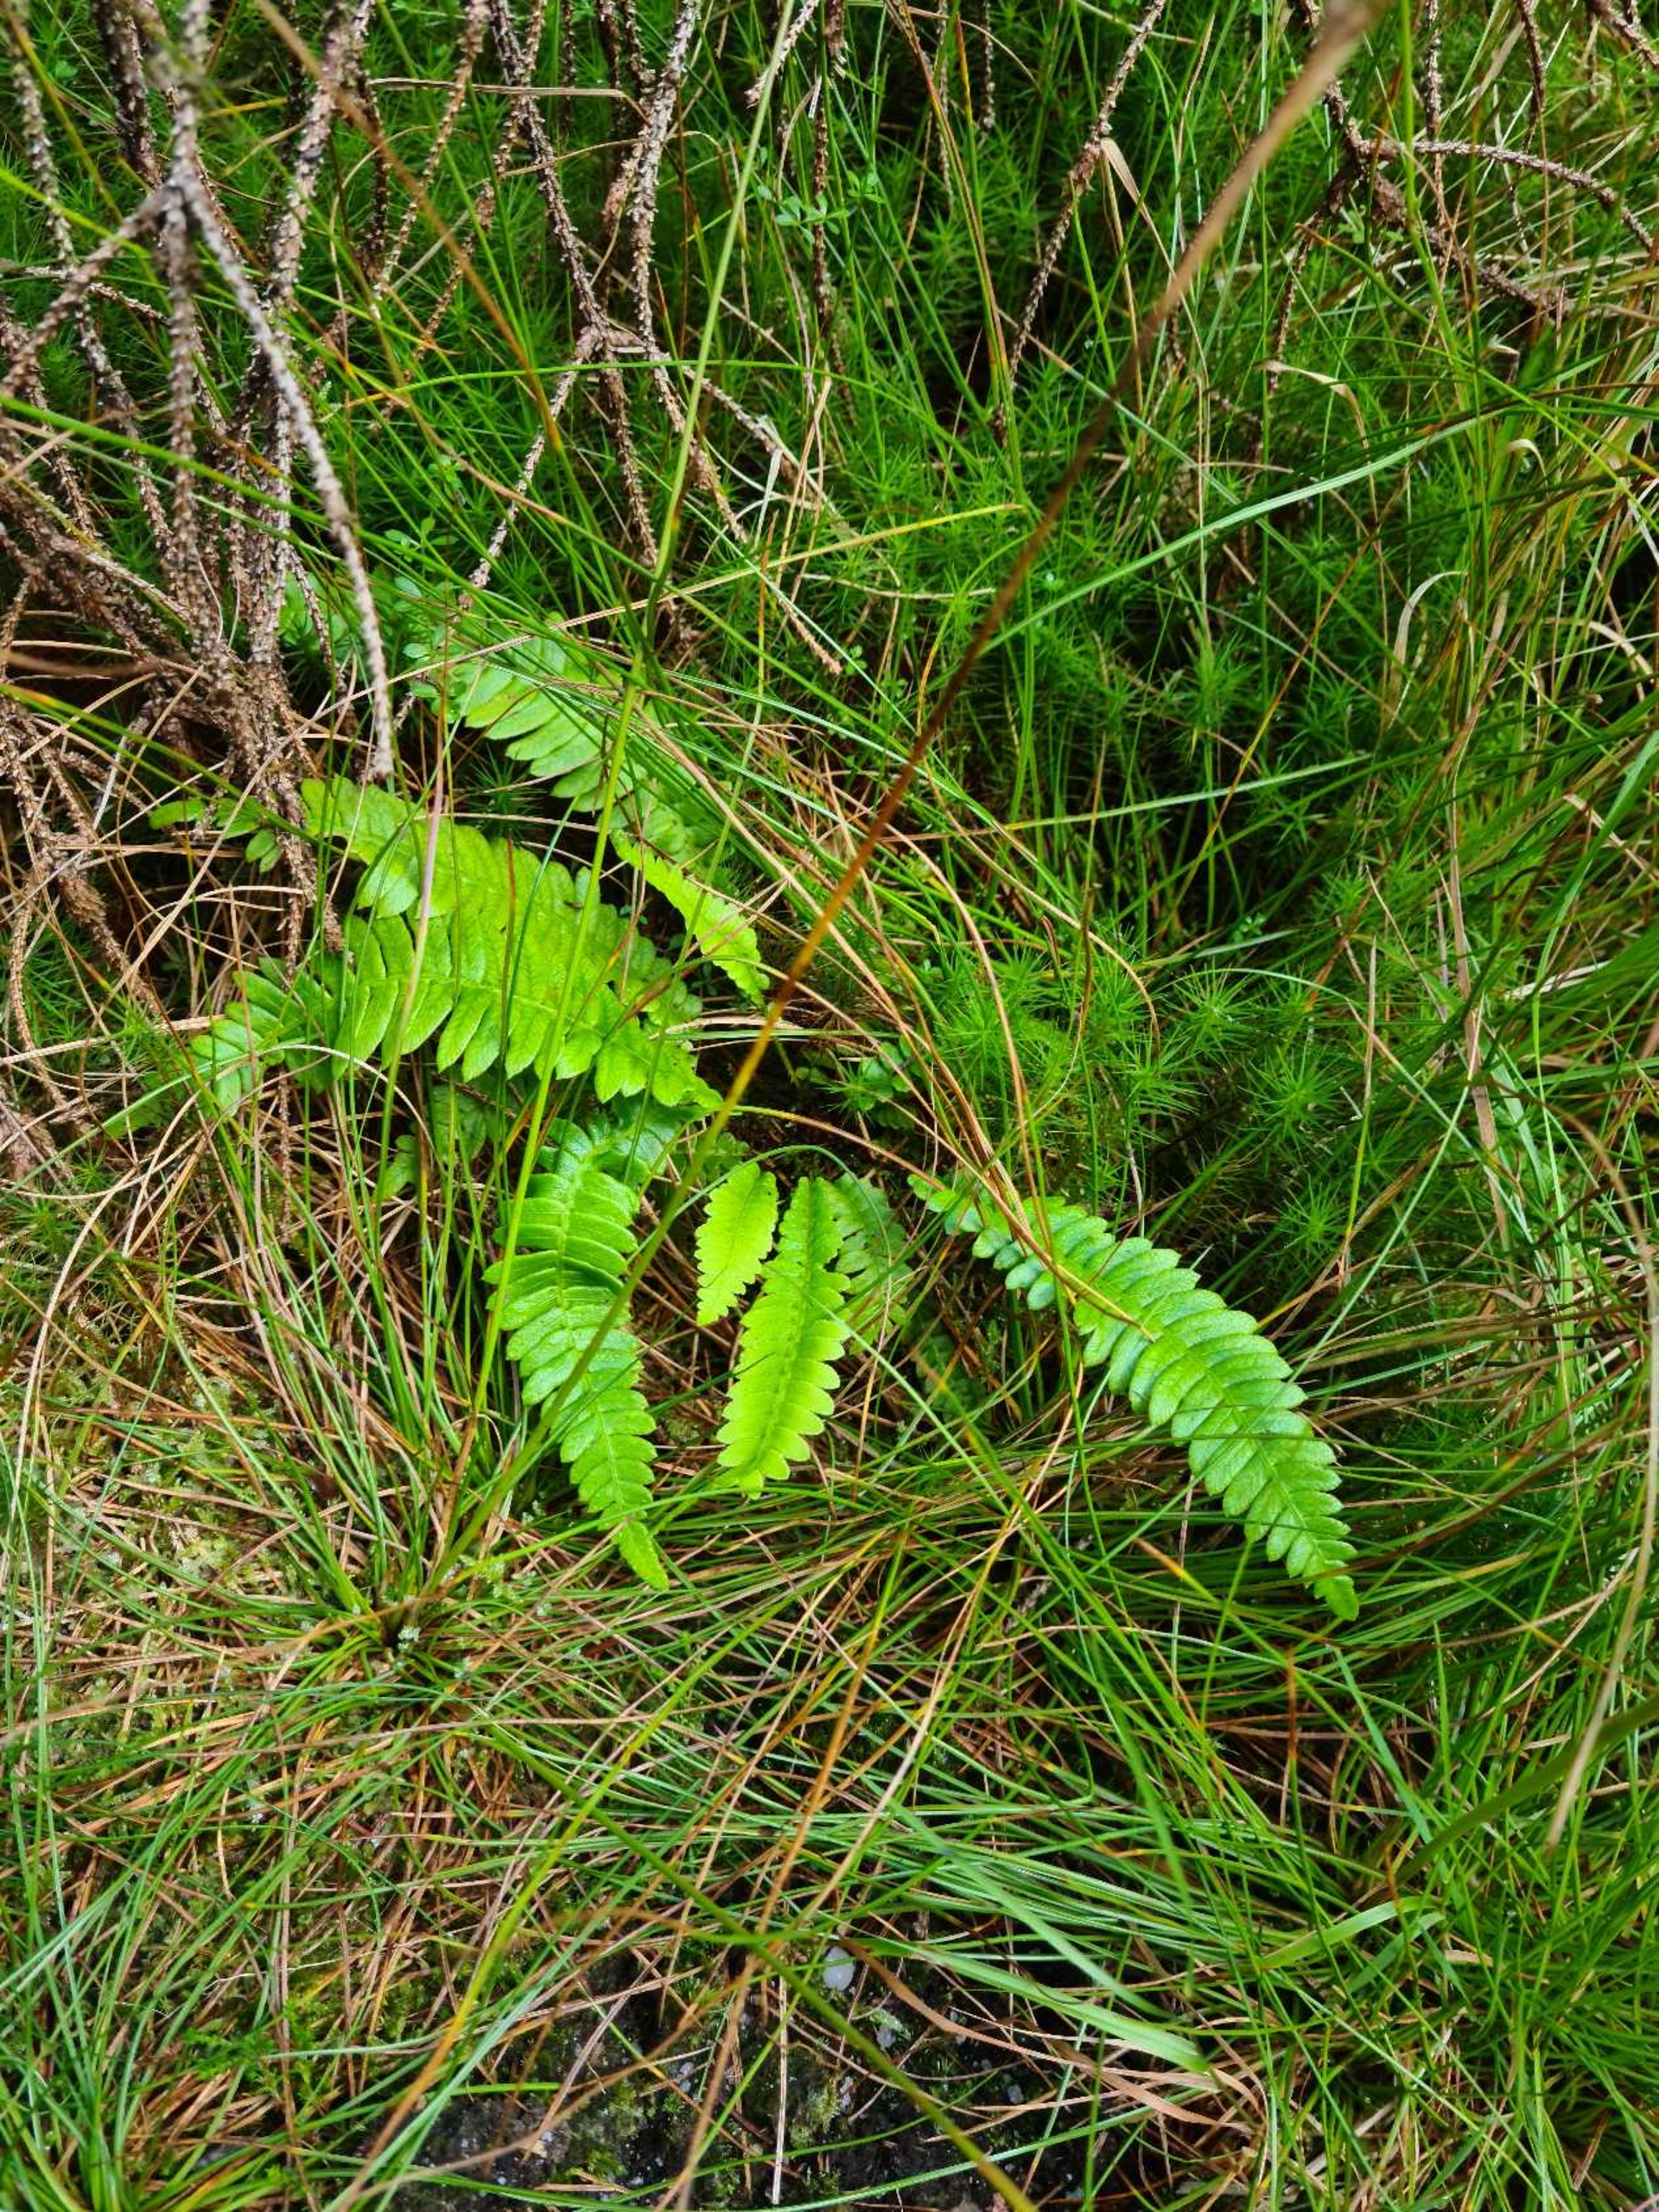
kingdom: Plantae
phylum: Tracheophyta
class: Polypodiopsida
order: Polypodiales
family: Blechnaceae
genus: Struthiopteris
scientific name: Struthiopteris spicant
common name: Kambregne
